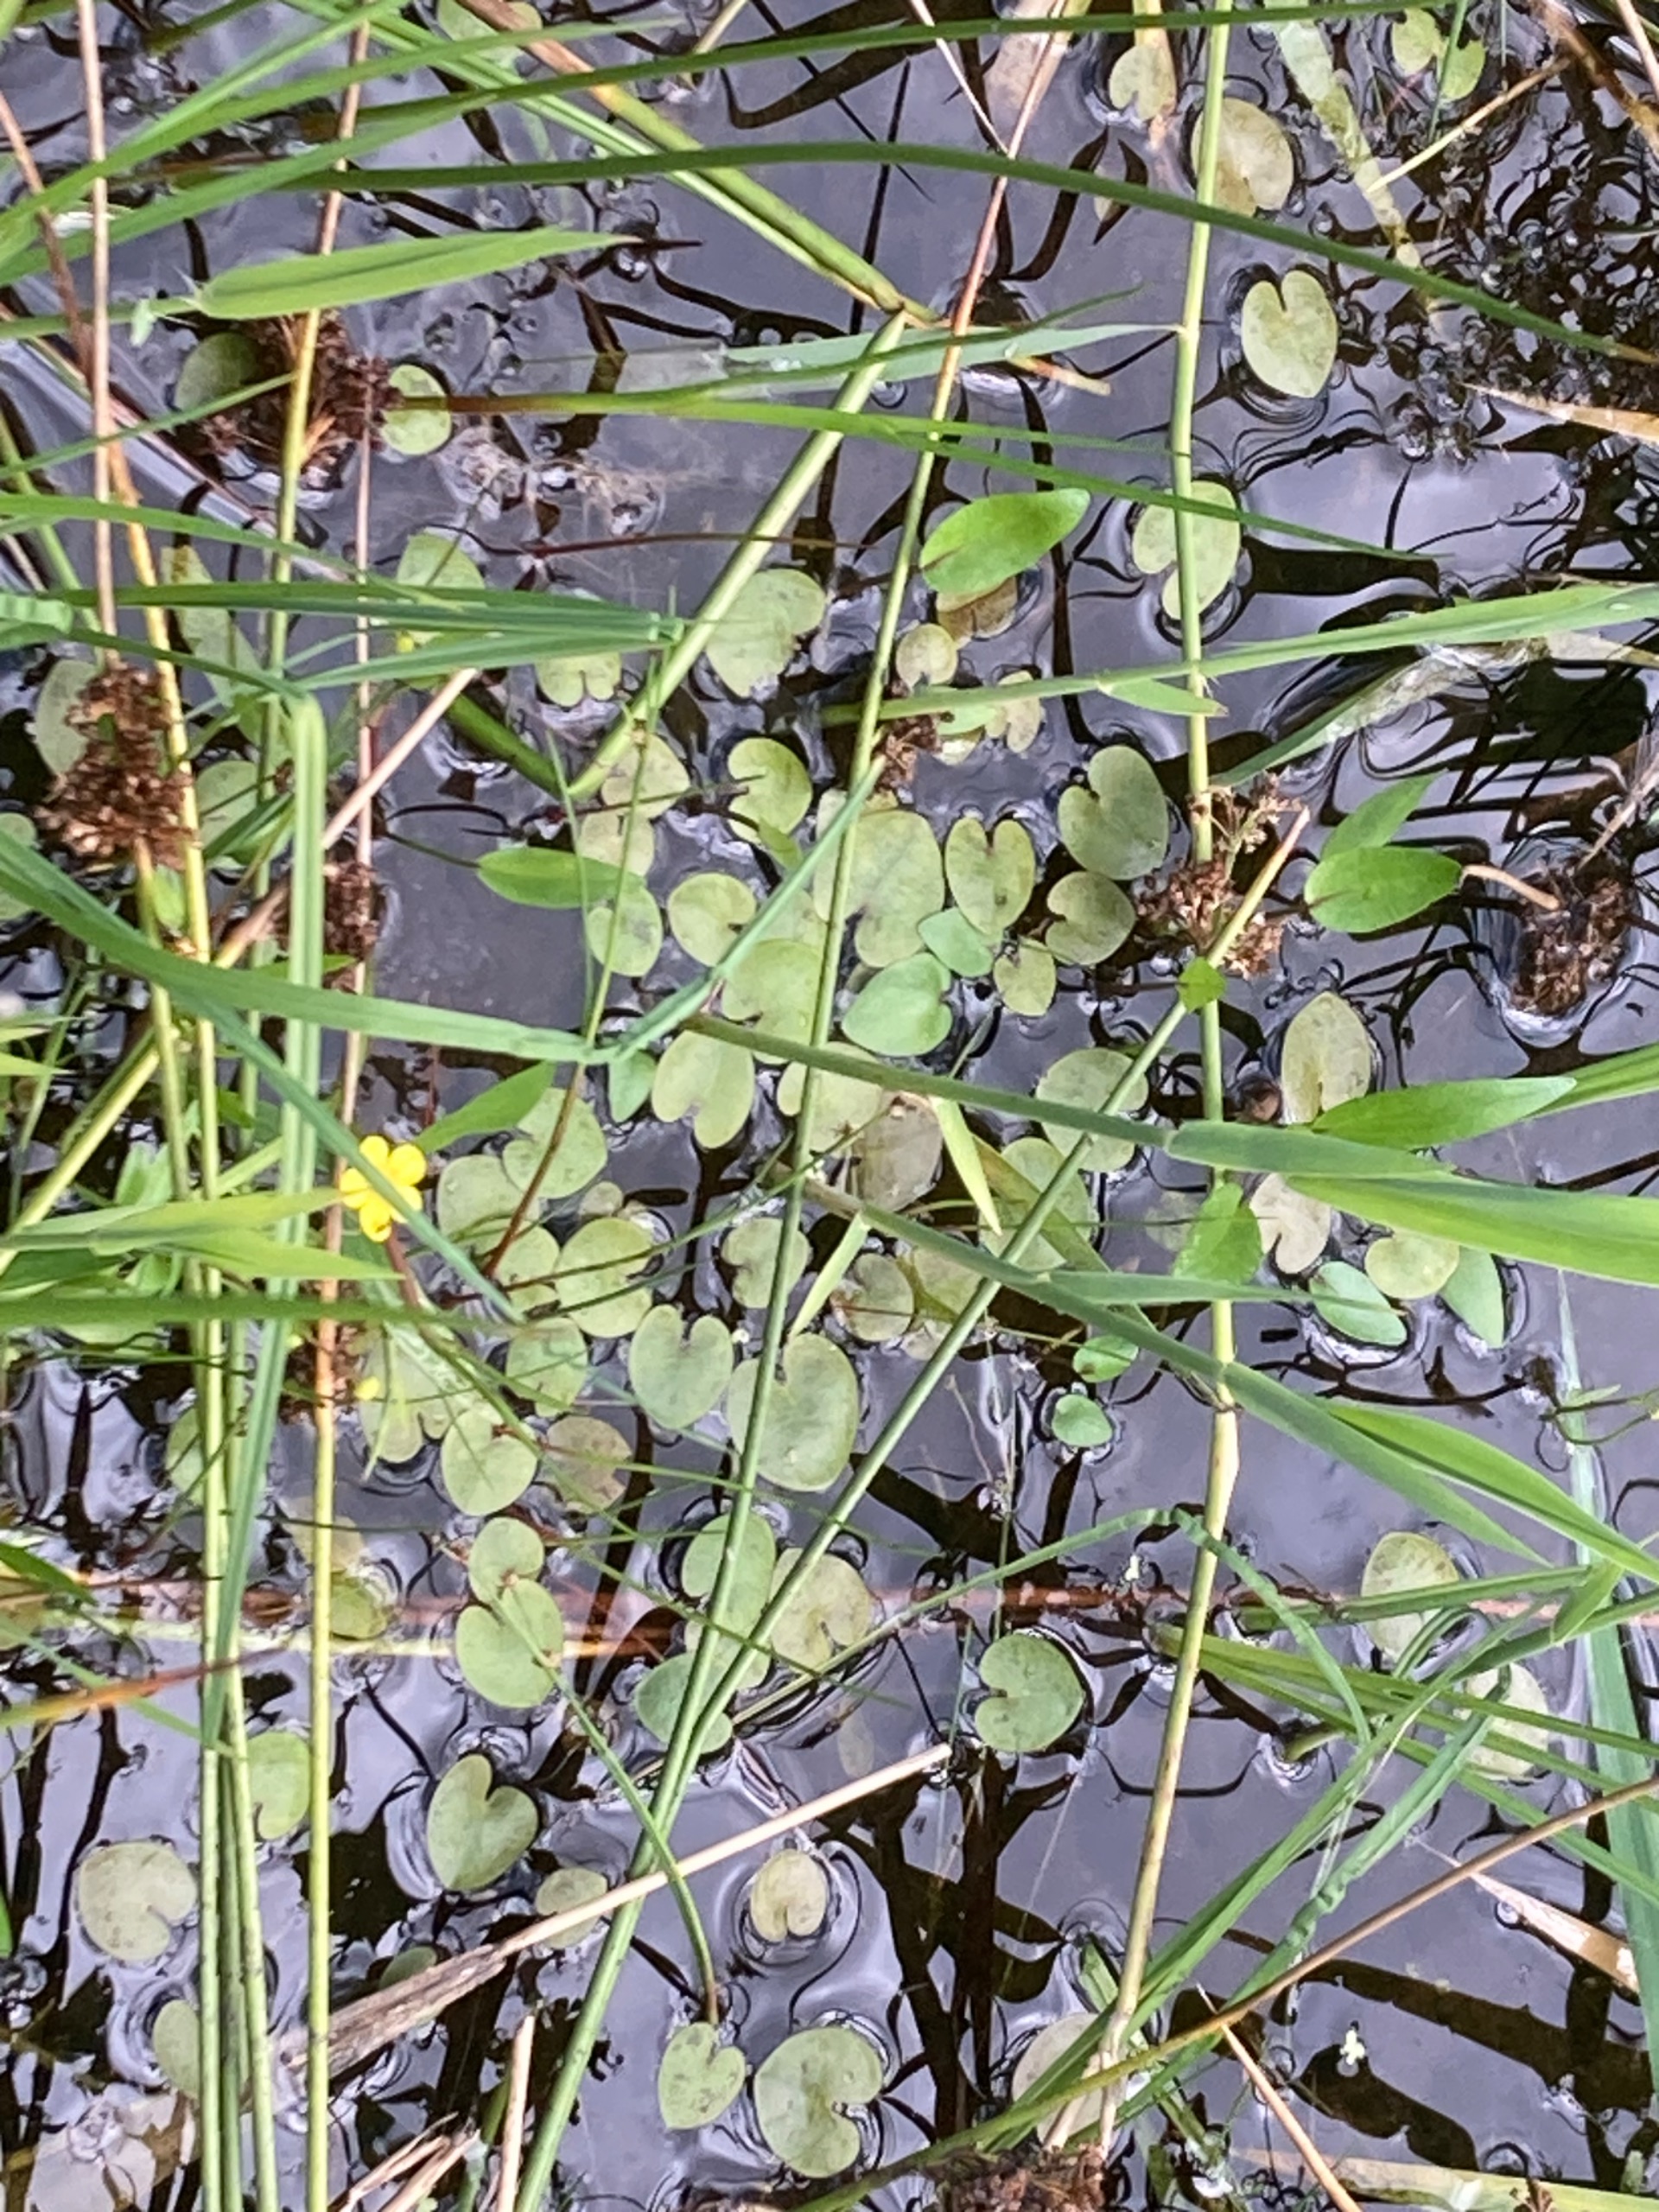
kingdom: Plantae
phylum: Tracheophyta
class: Liliopsida
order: Alismatales
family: Hydrocharitaceae
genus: Hydrocharis
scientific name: Hydrocharis morsus-ranae
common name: Frøbid
